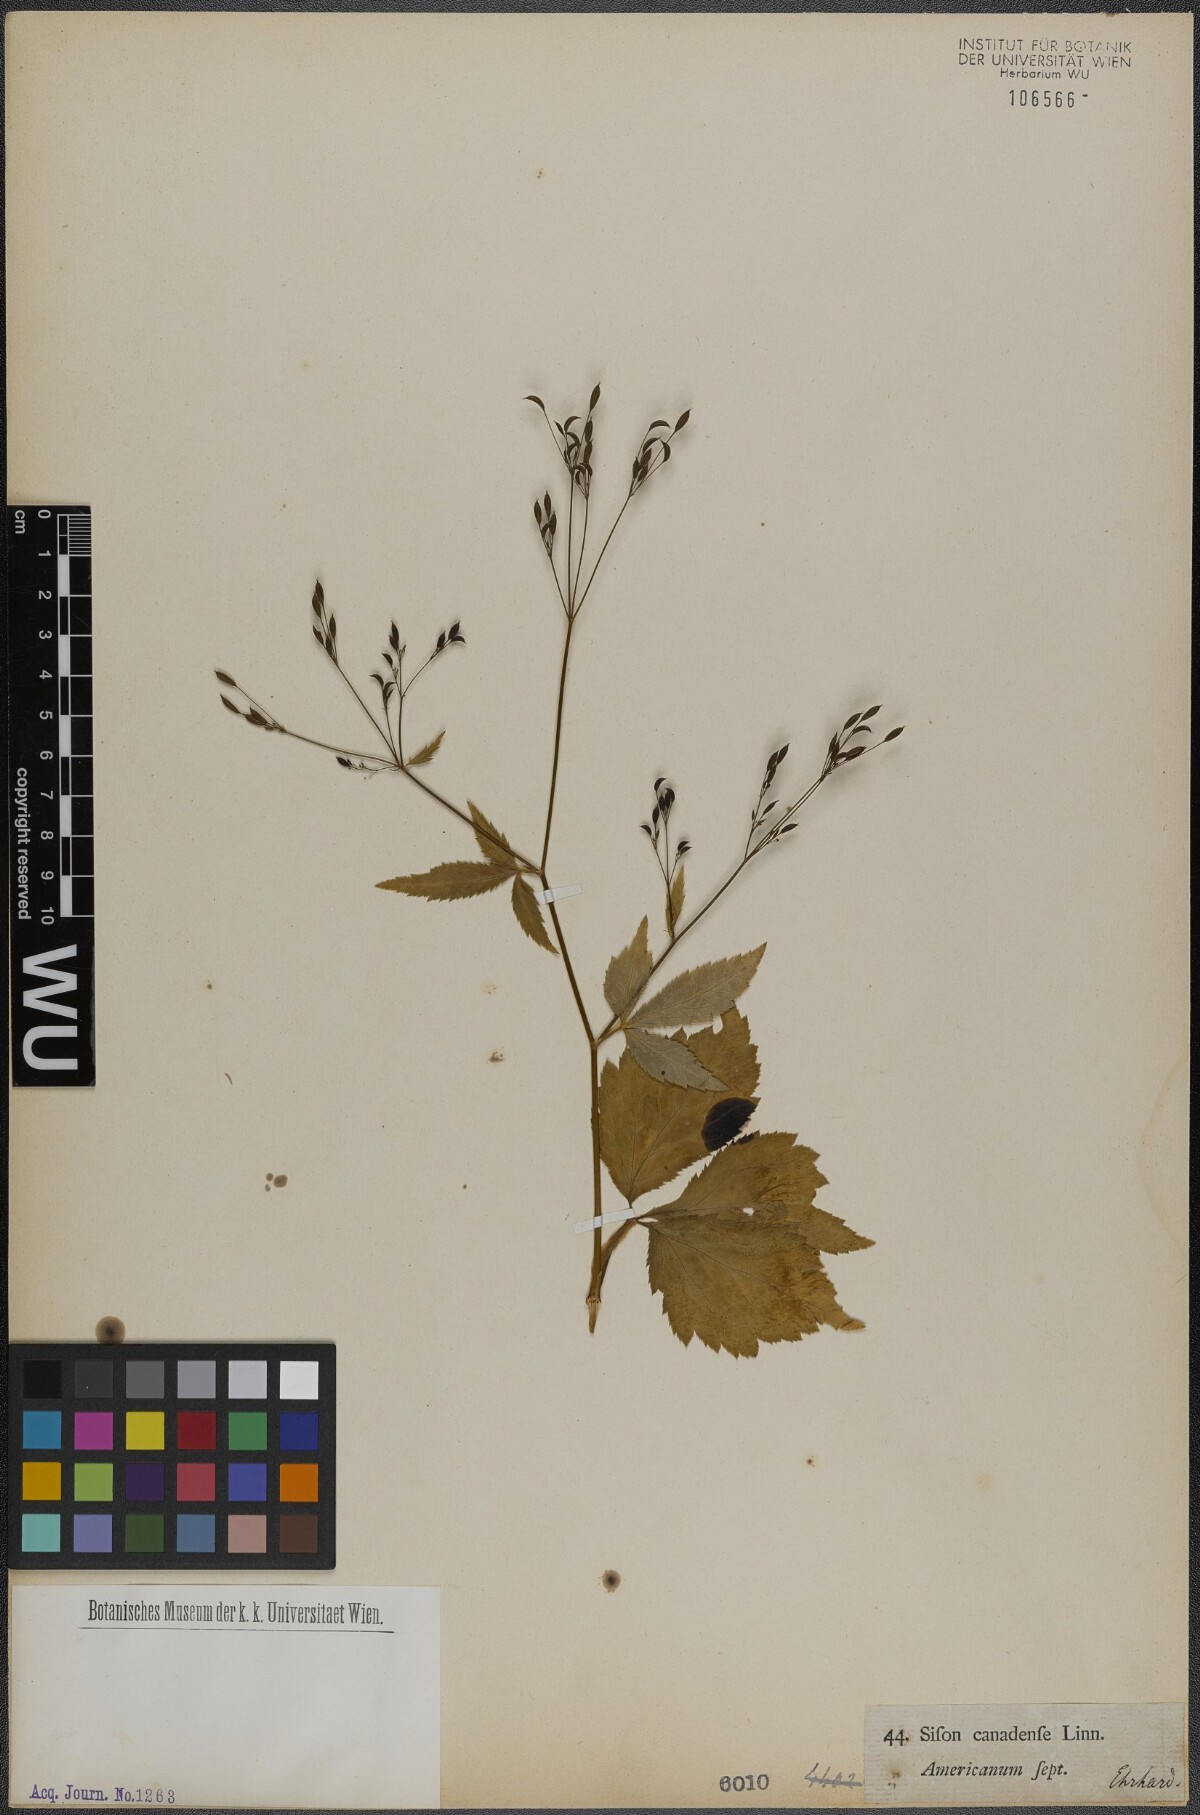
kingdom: Plantae
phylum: Tracheophyta
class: Magnoliopsida
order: Apiales
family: Apiaceae
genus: Cryptotaenia
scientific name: Cryptotaenia canadensis
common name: Honewort
